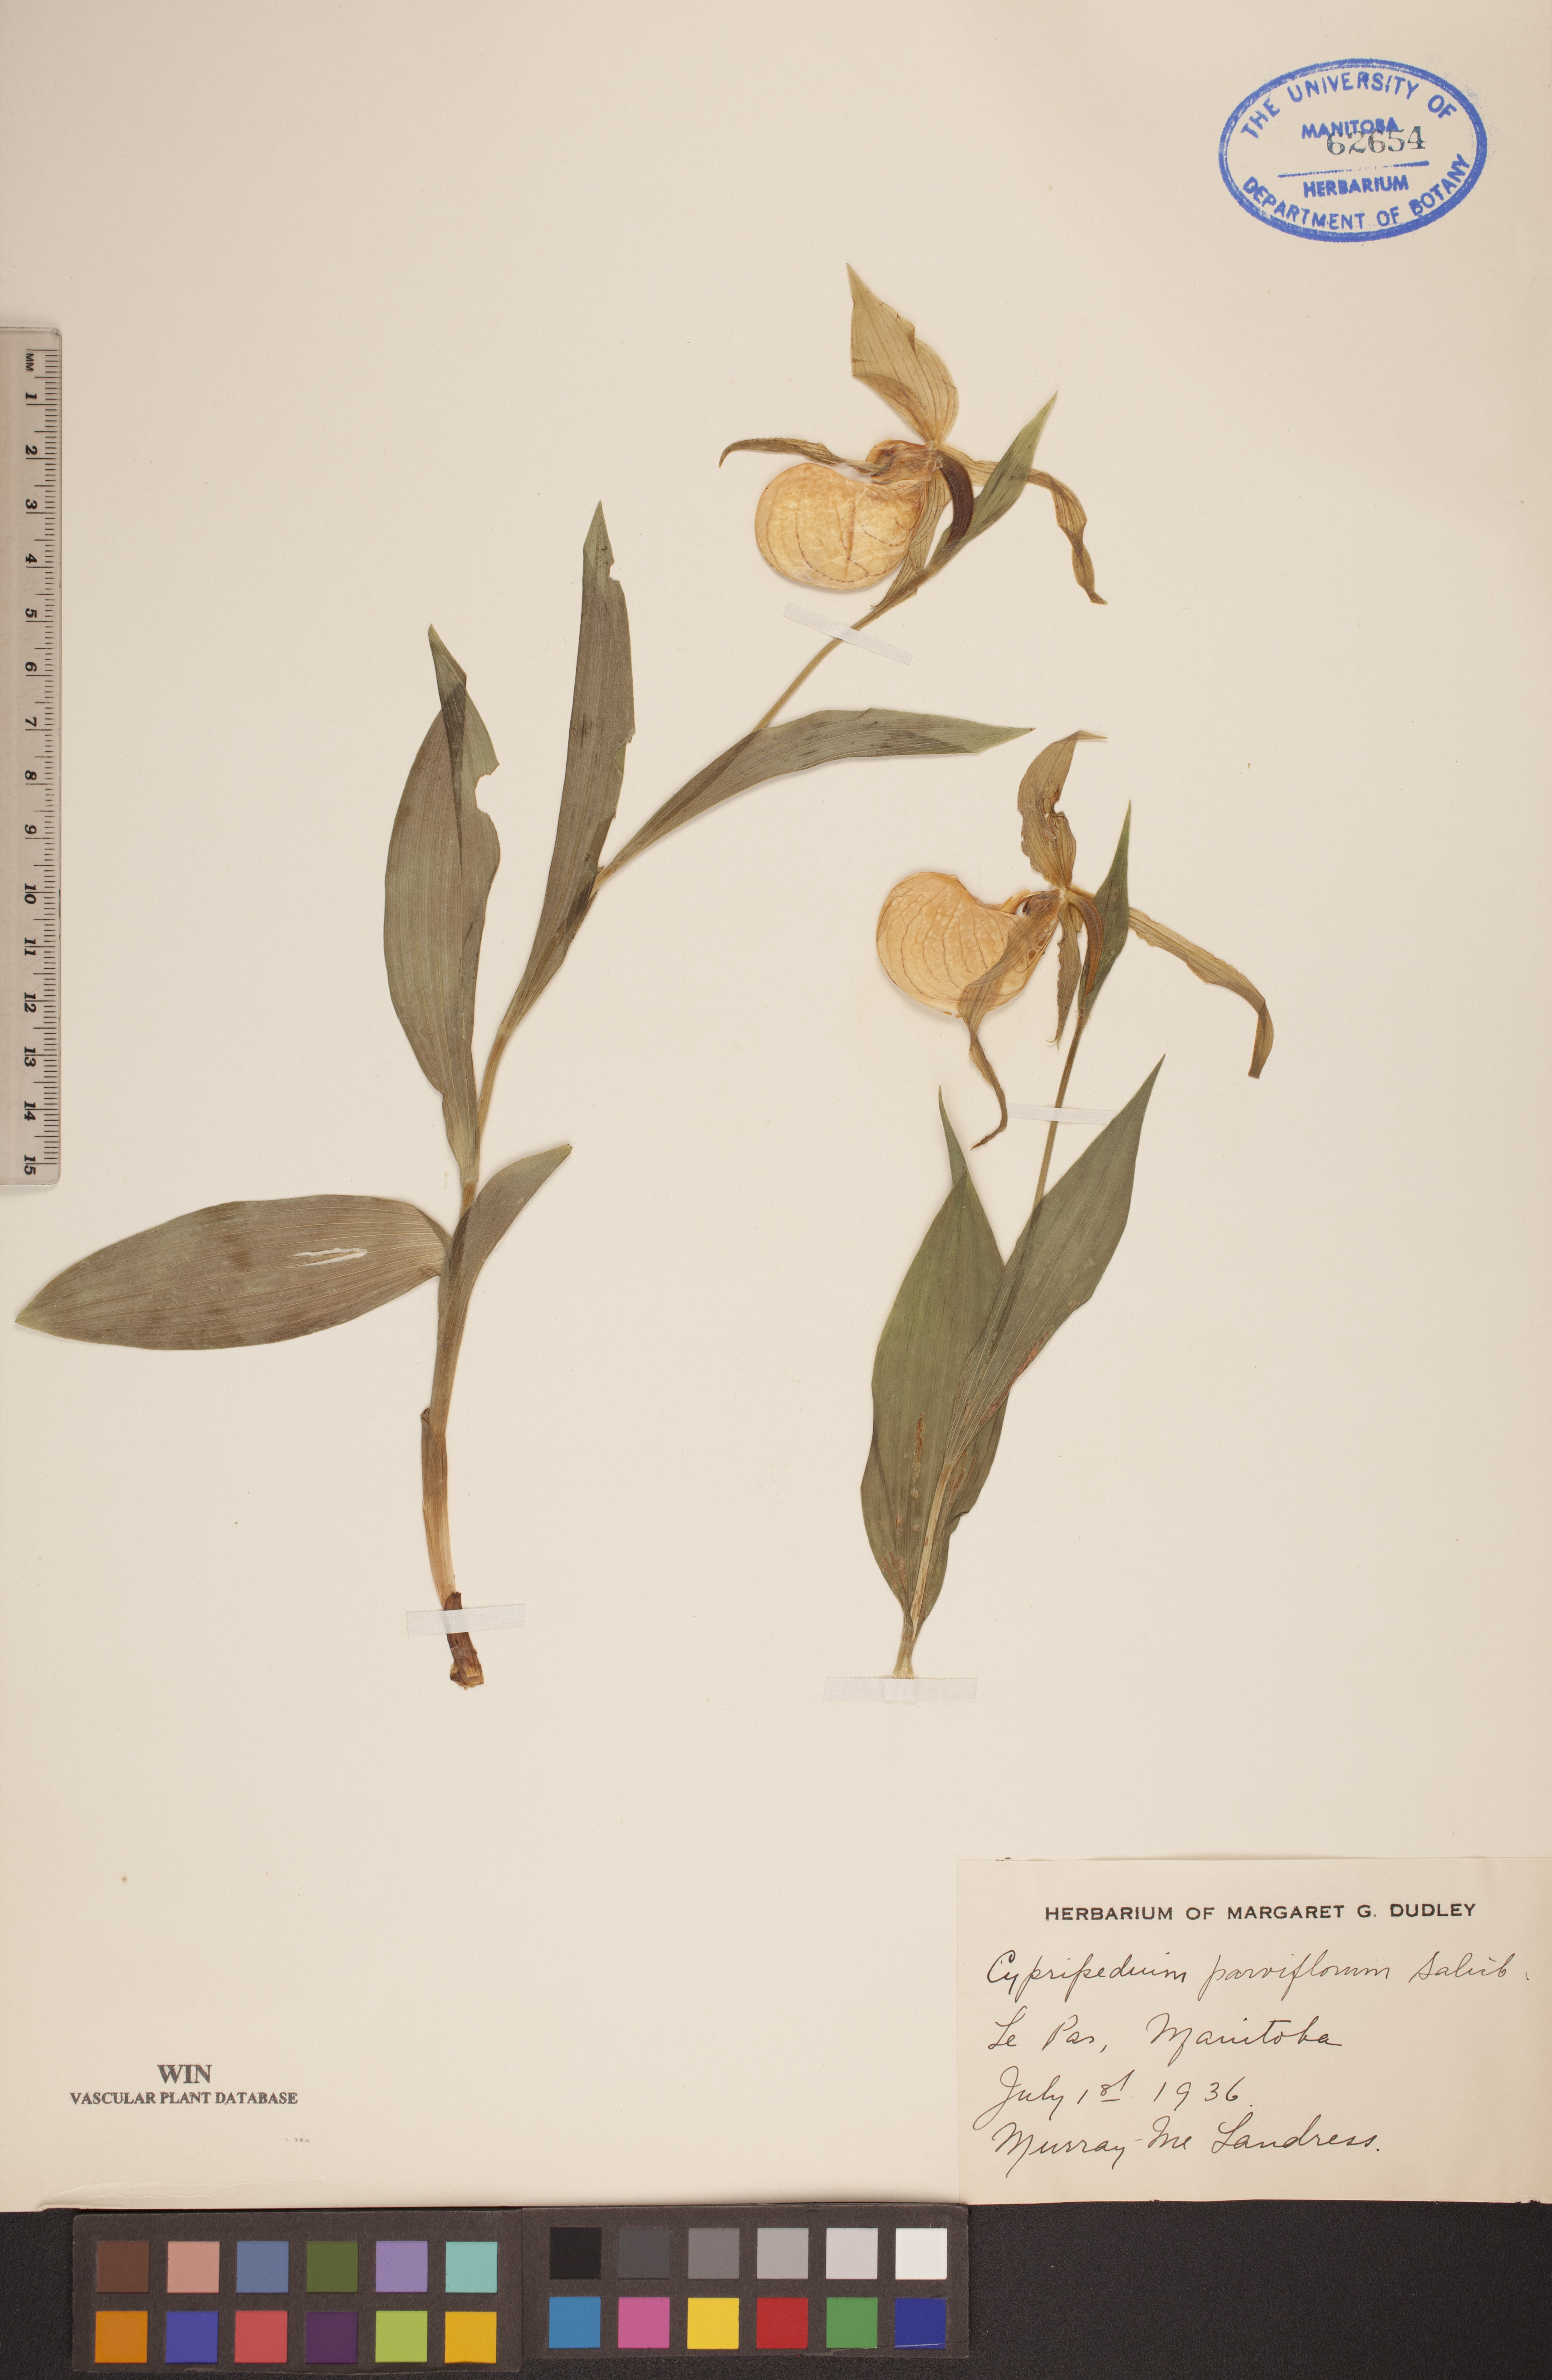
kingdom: Plantae
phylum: Tracheophyta
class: Liliopsida
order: Asparagales
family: Orchidaceae
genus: Cypripedium
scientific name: Cypripedium parviflorum
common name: American yellow lady's-slipper
